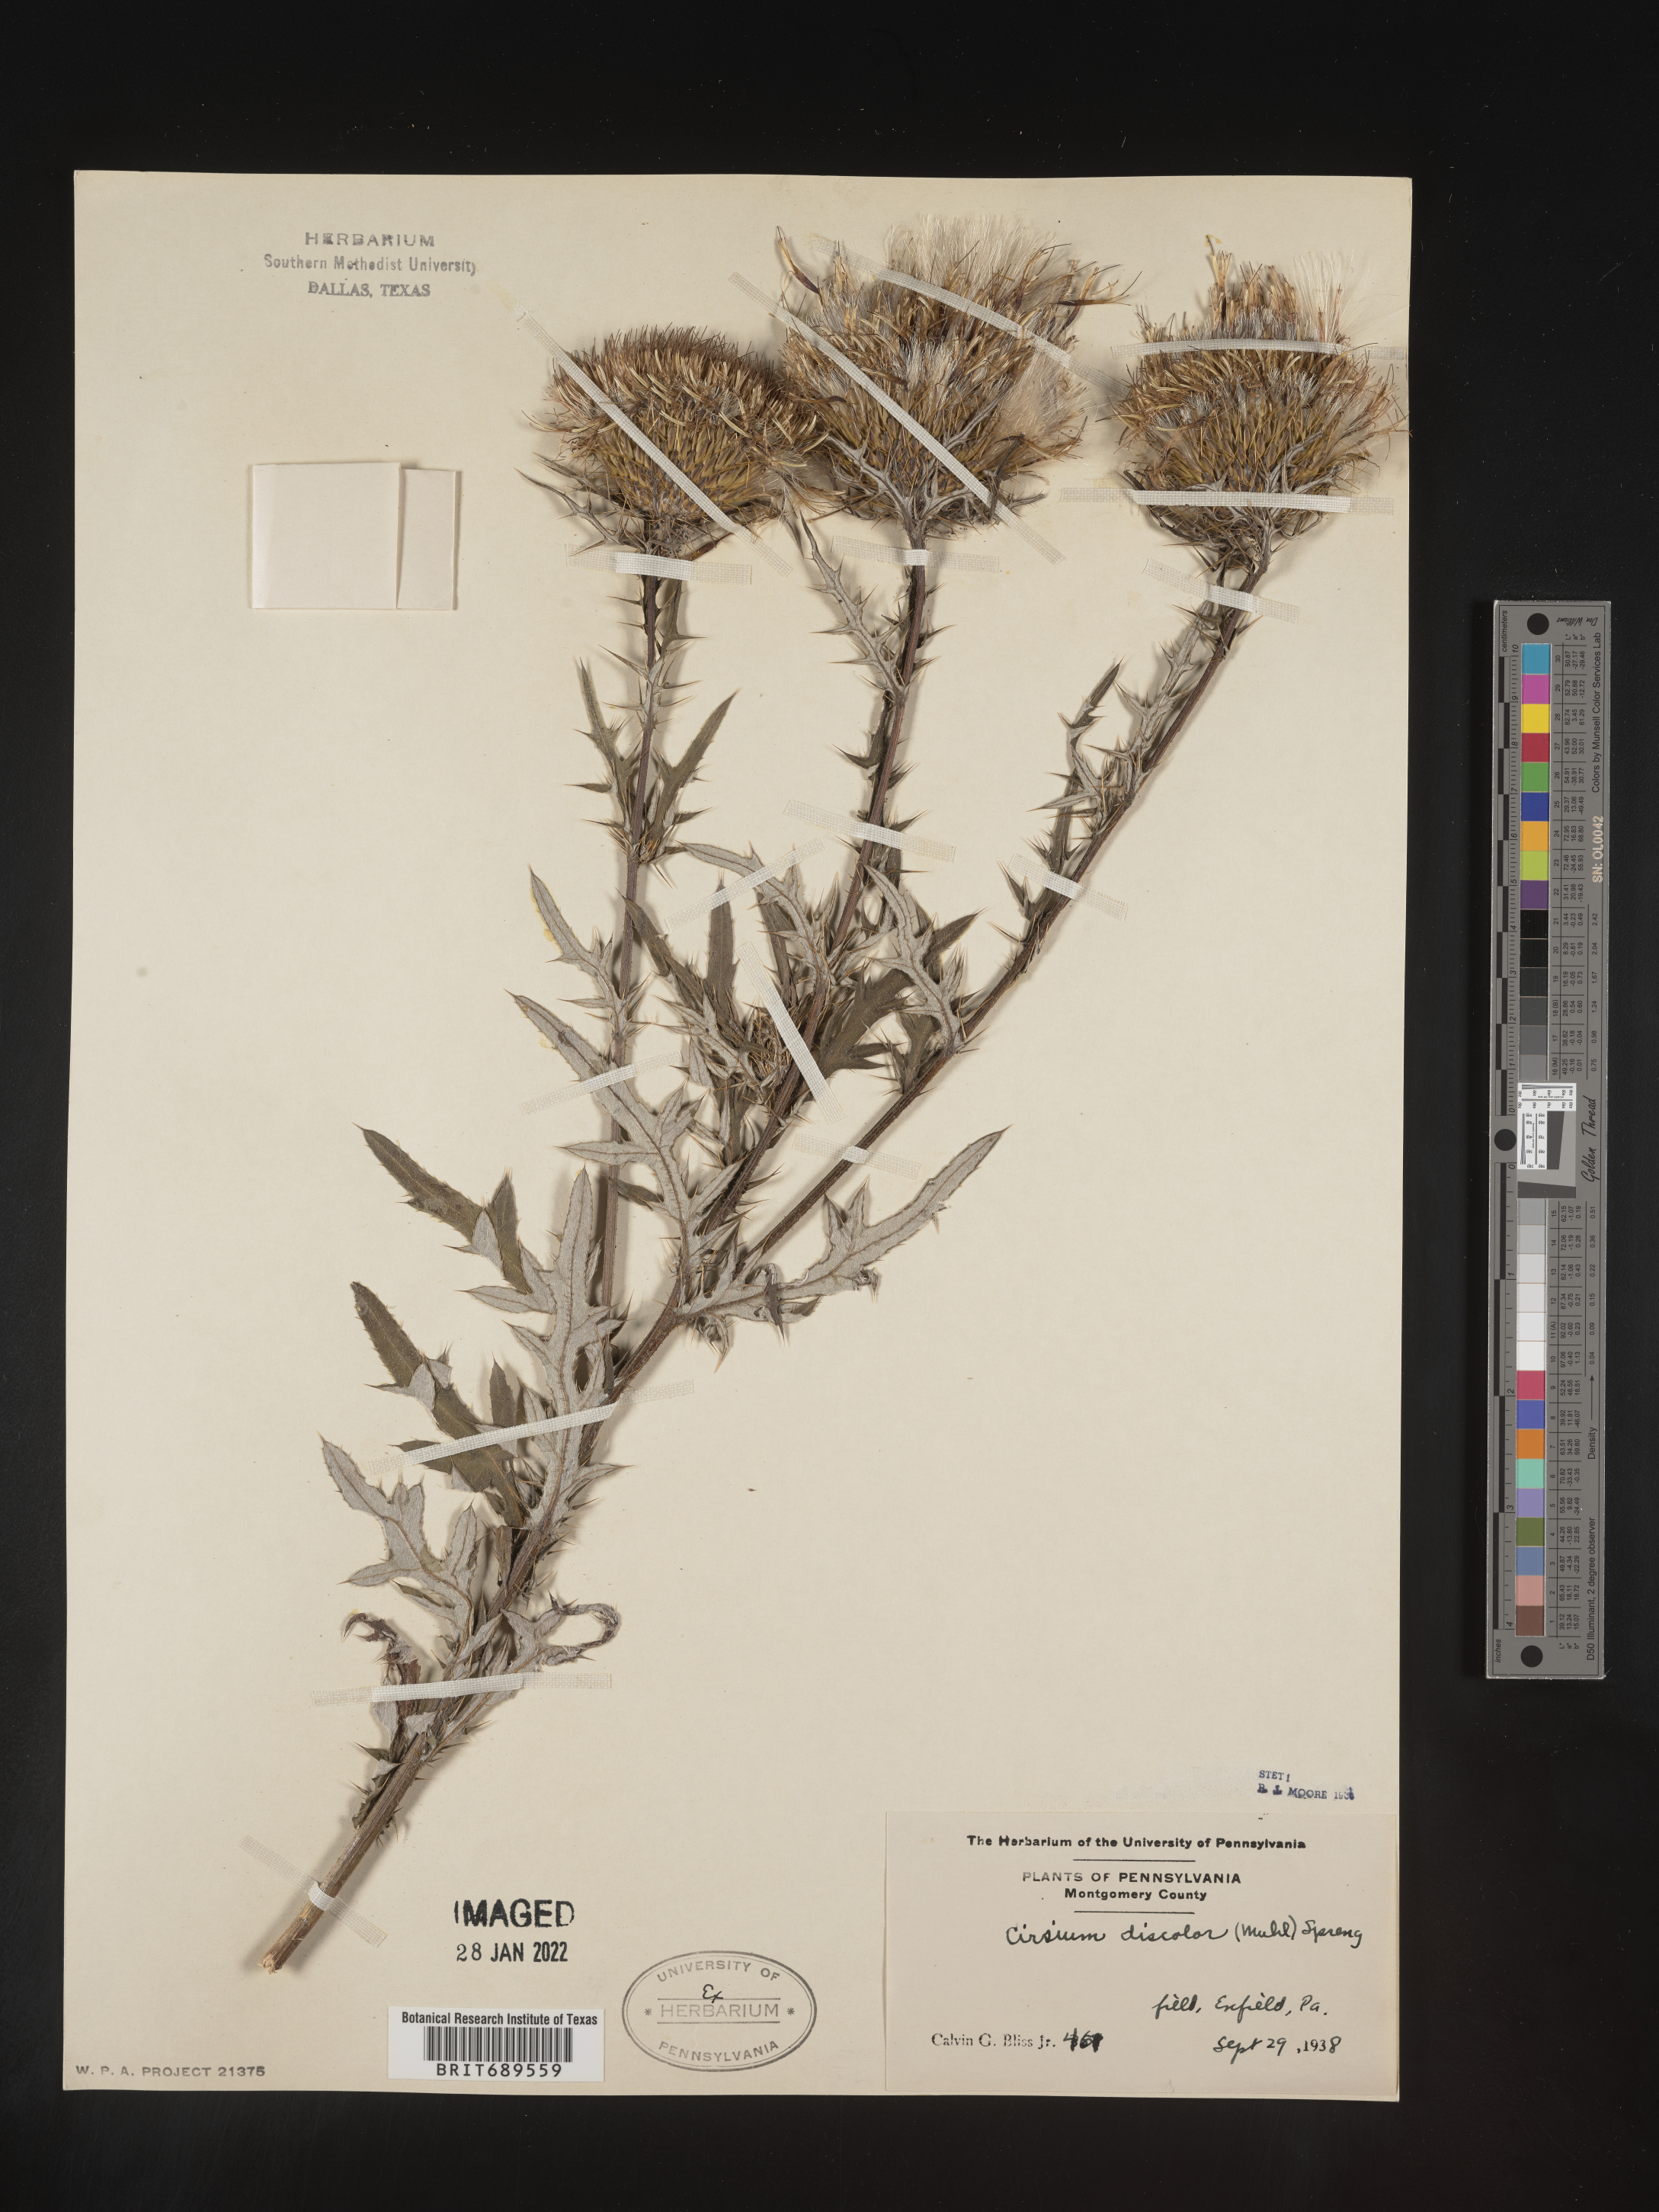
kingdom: Plantae
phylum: Tracheophyta
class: Magnoliopsida
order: Asterales
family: Asteraceae
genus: Cirsium
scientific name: Cirsium discolor
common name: Field thistle
